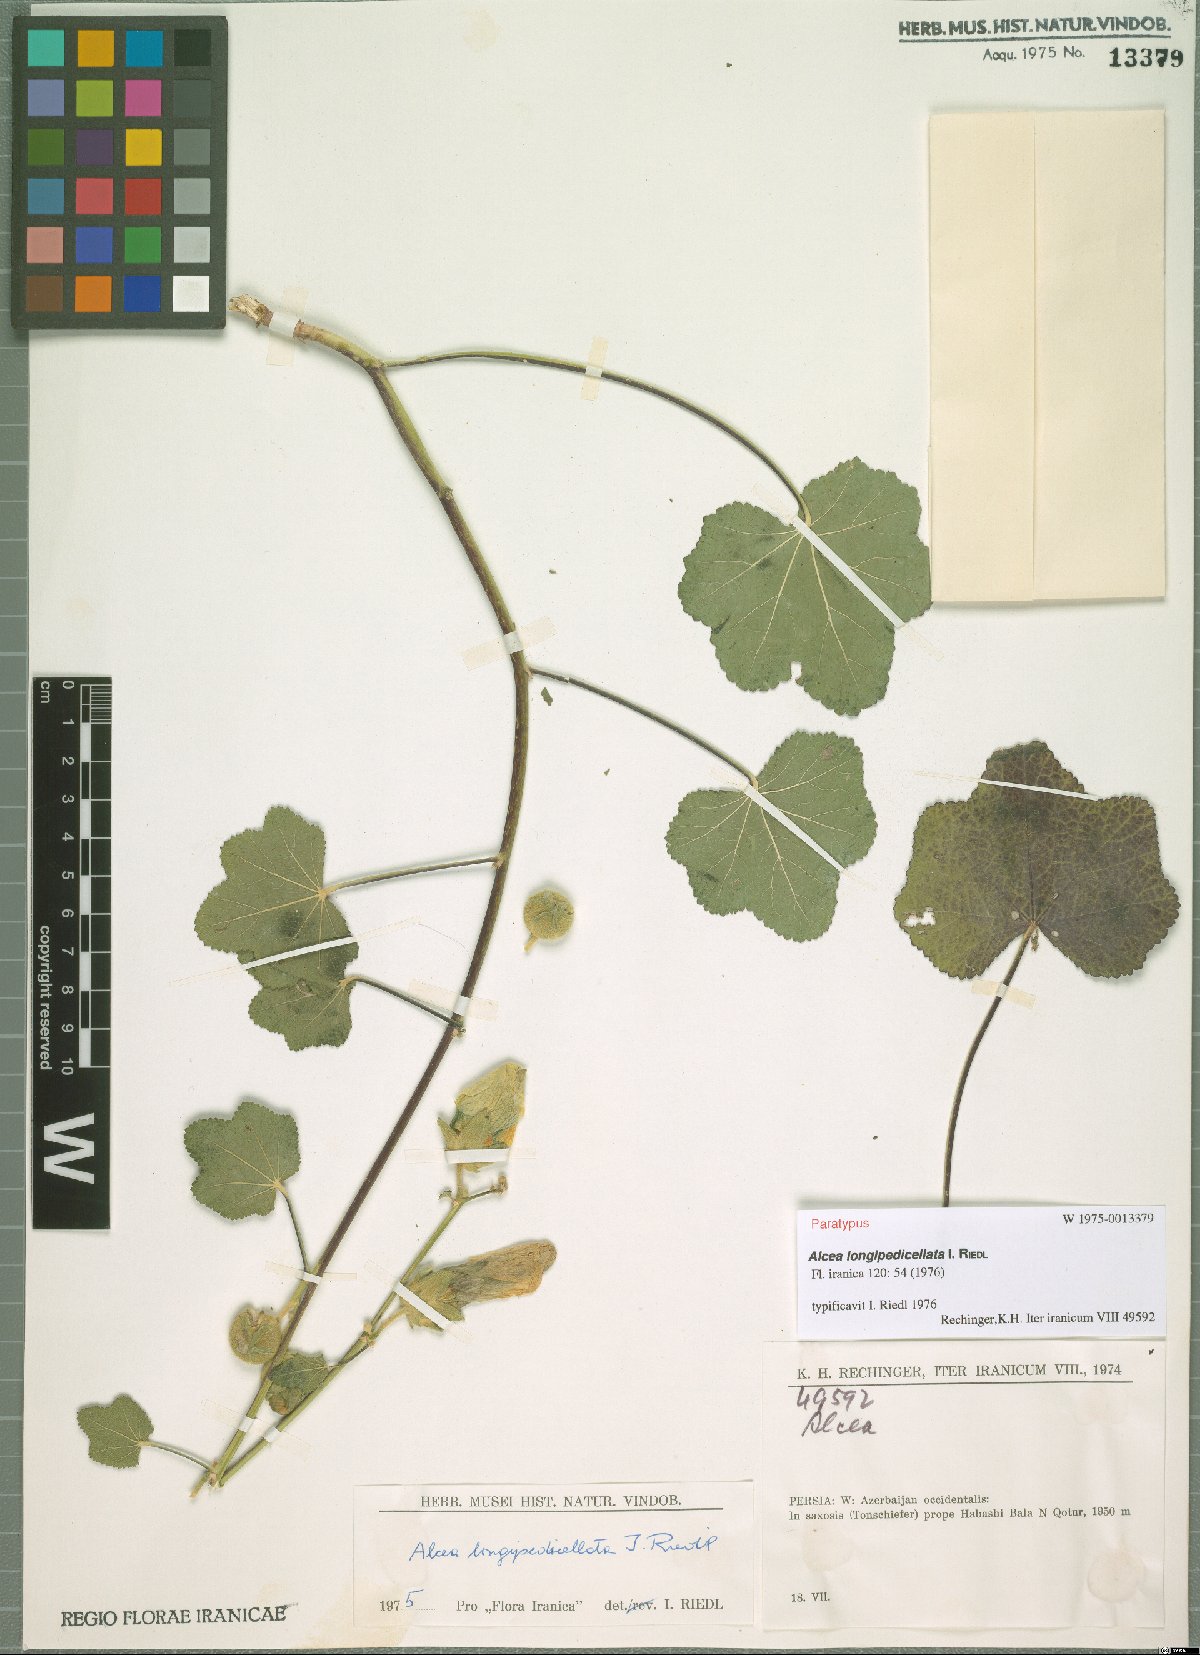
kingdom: Plantae
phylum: Tracheophyta
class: Magnoliopsida
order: Malvales
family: Malvaceae
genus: Alcea
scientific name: Alcea longipedicellata
